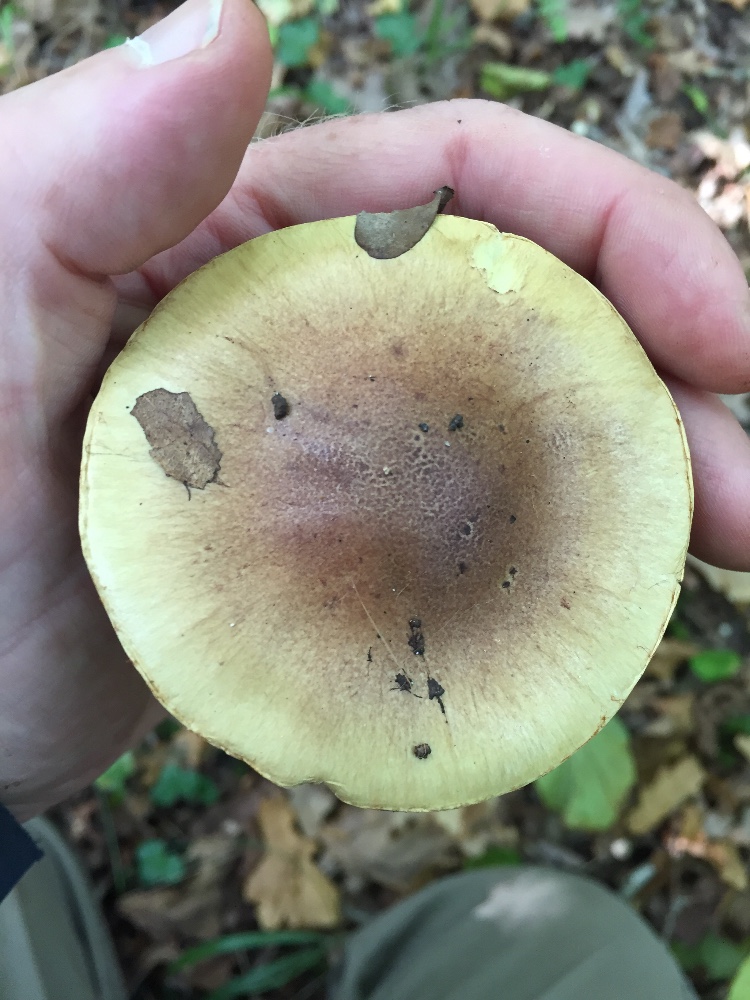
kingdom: Fungi
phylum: Basidiomycota
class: Agaricomycetes
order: Agaricales
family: Cortinariaceae
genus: Phlegmacium
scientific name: Phlegmacium stjernegaardii
